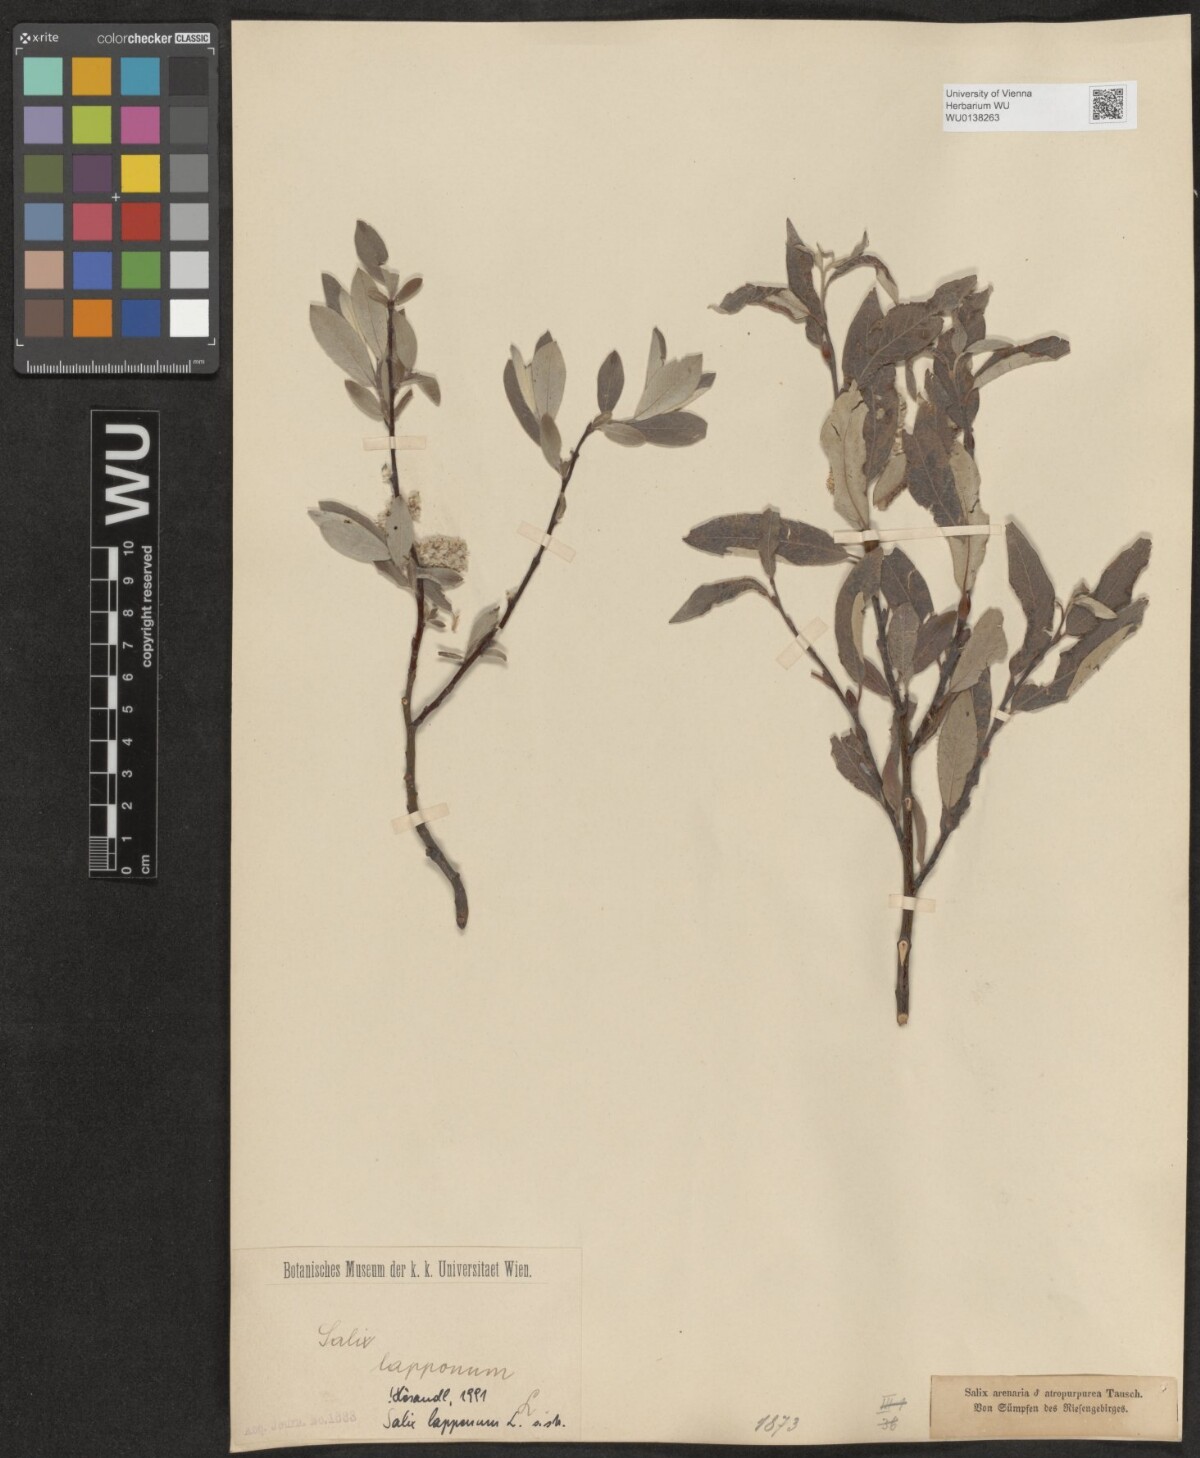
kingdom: Plantae
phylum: Tracheophyta
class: Magnoliopsida
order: Malpighiales
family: Salicaceae
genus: Salix
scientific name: Salix lapponum
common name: Downy willow
